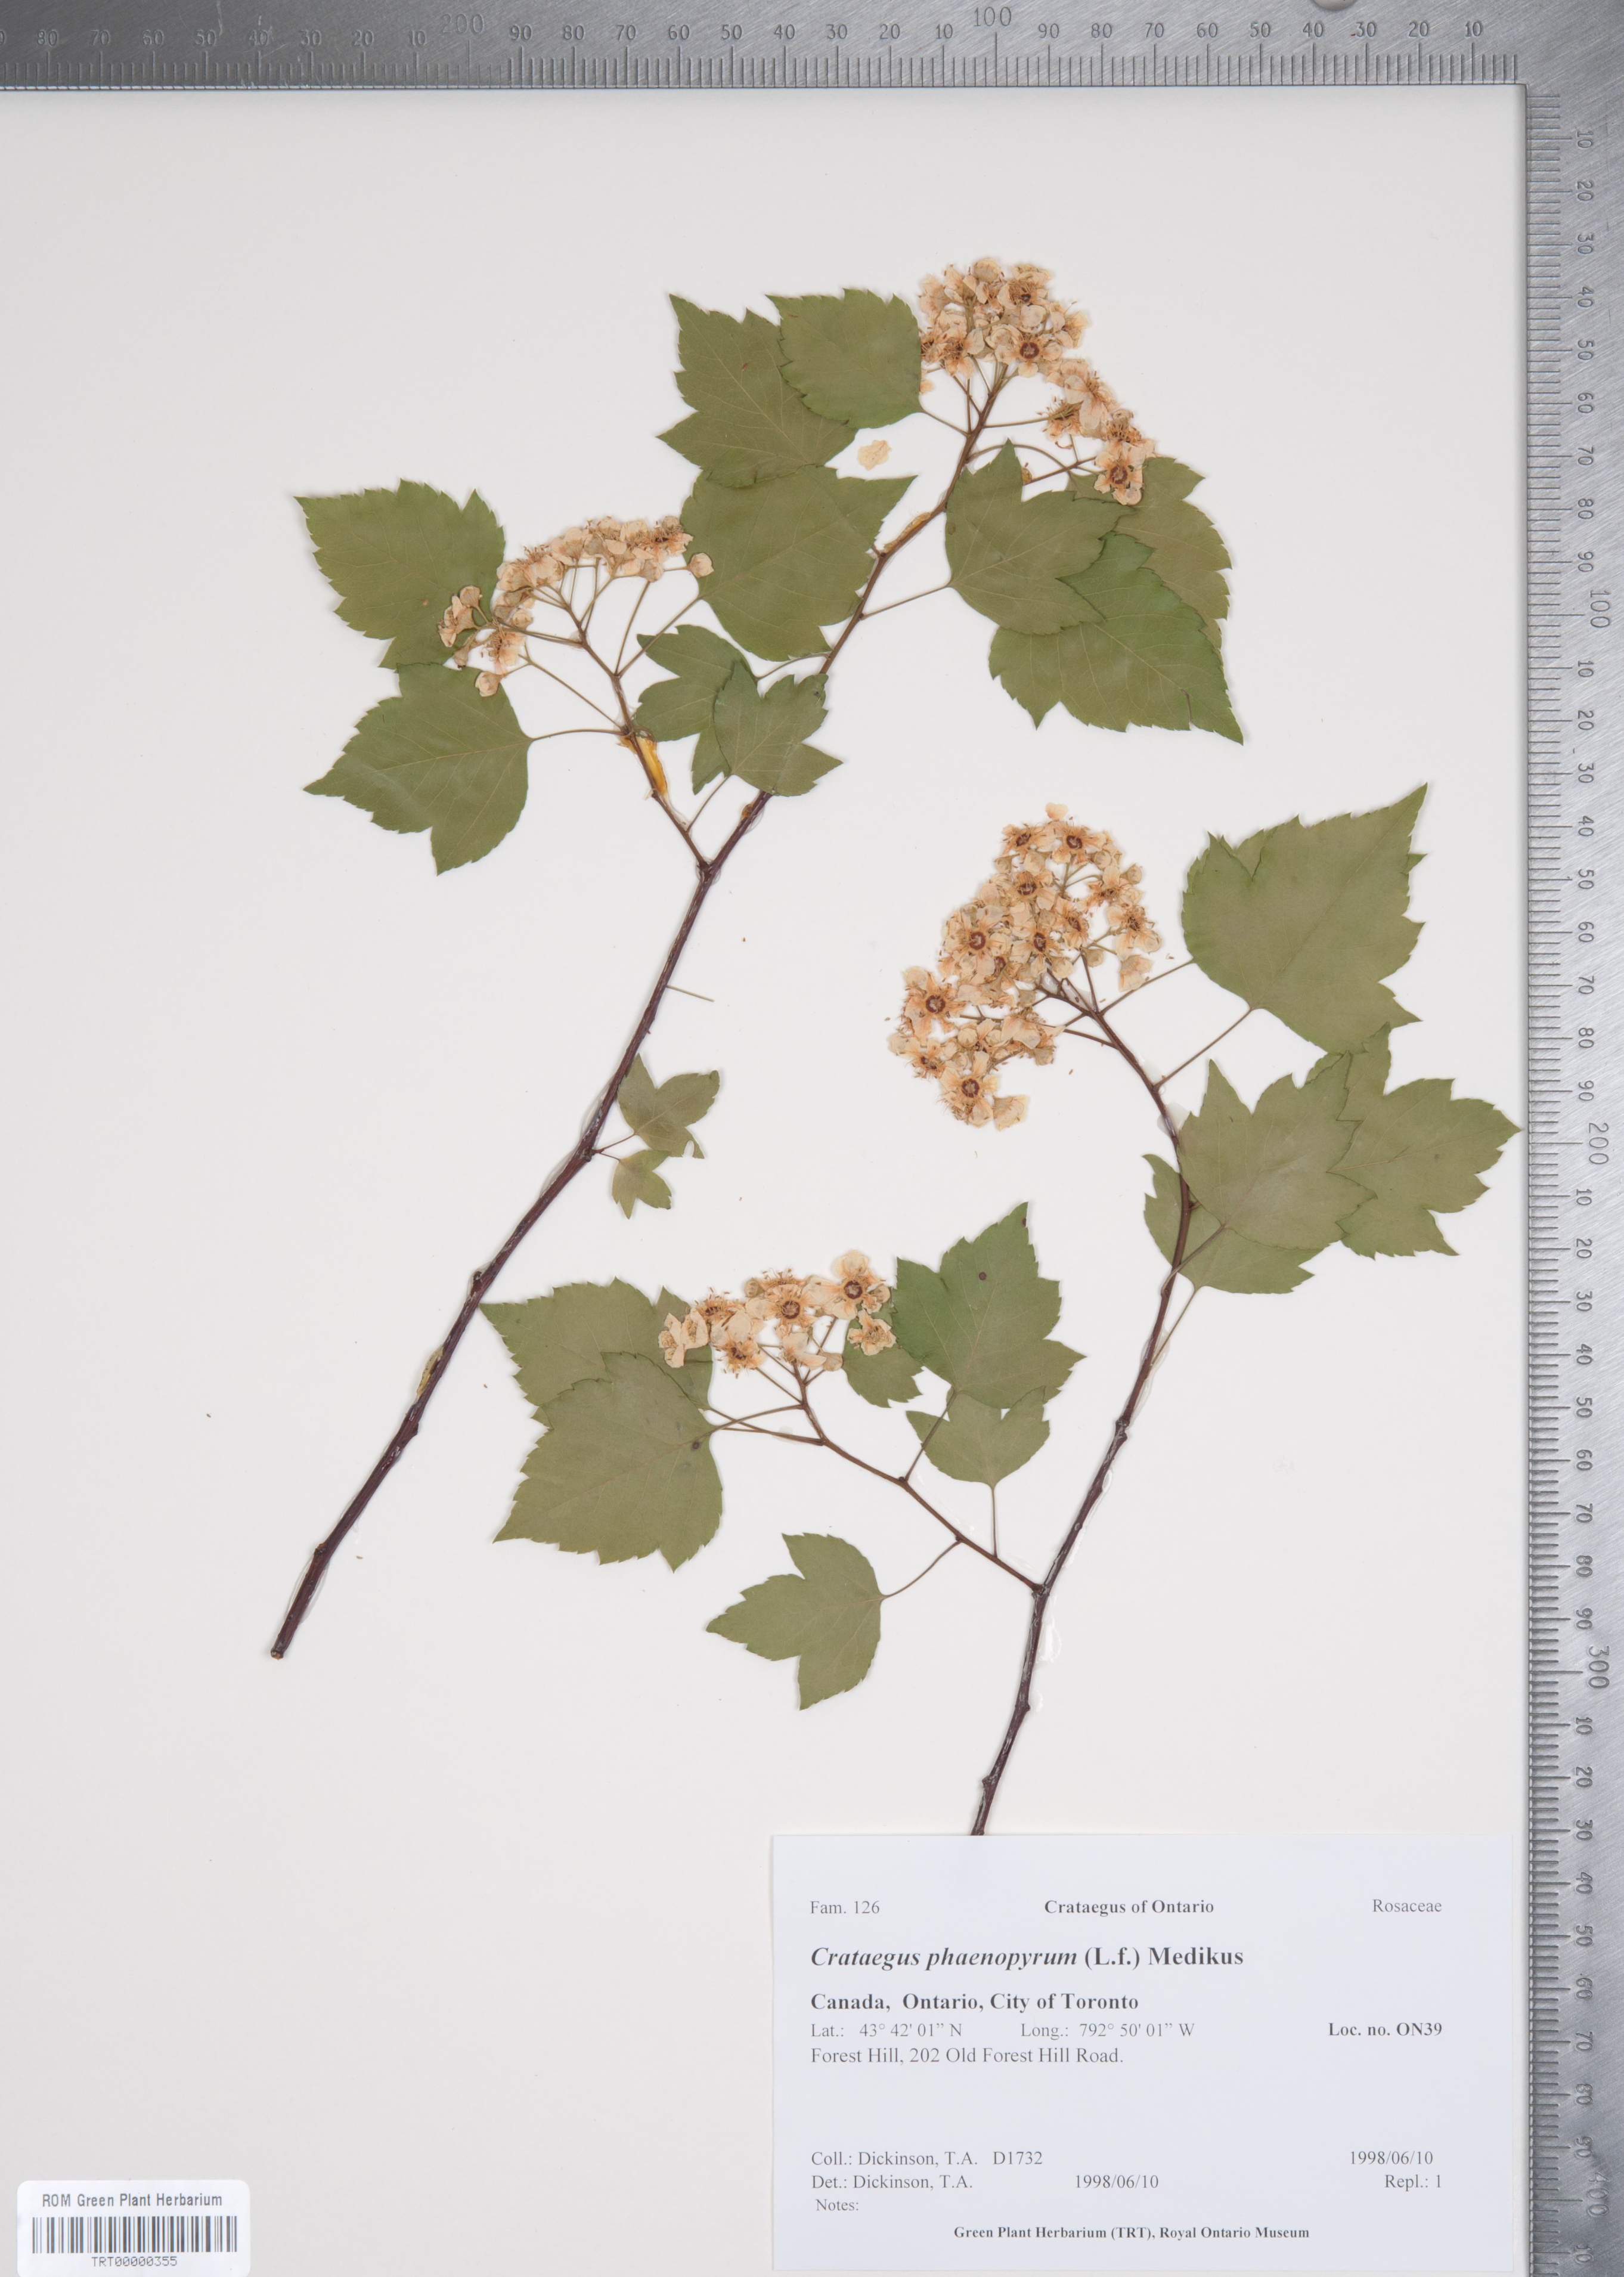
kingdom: Plantae
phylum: Tracheophyta
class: Magnoliopsida
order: Rosales
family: Rosaceae
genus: Crataegus
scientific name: Crataegus phaenopyrum
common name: Washington hawthorn
